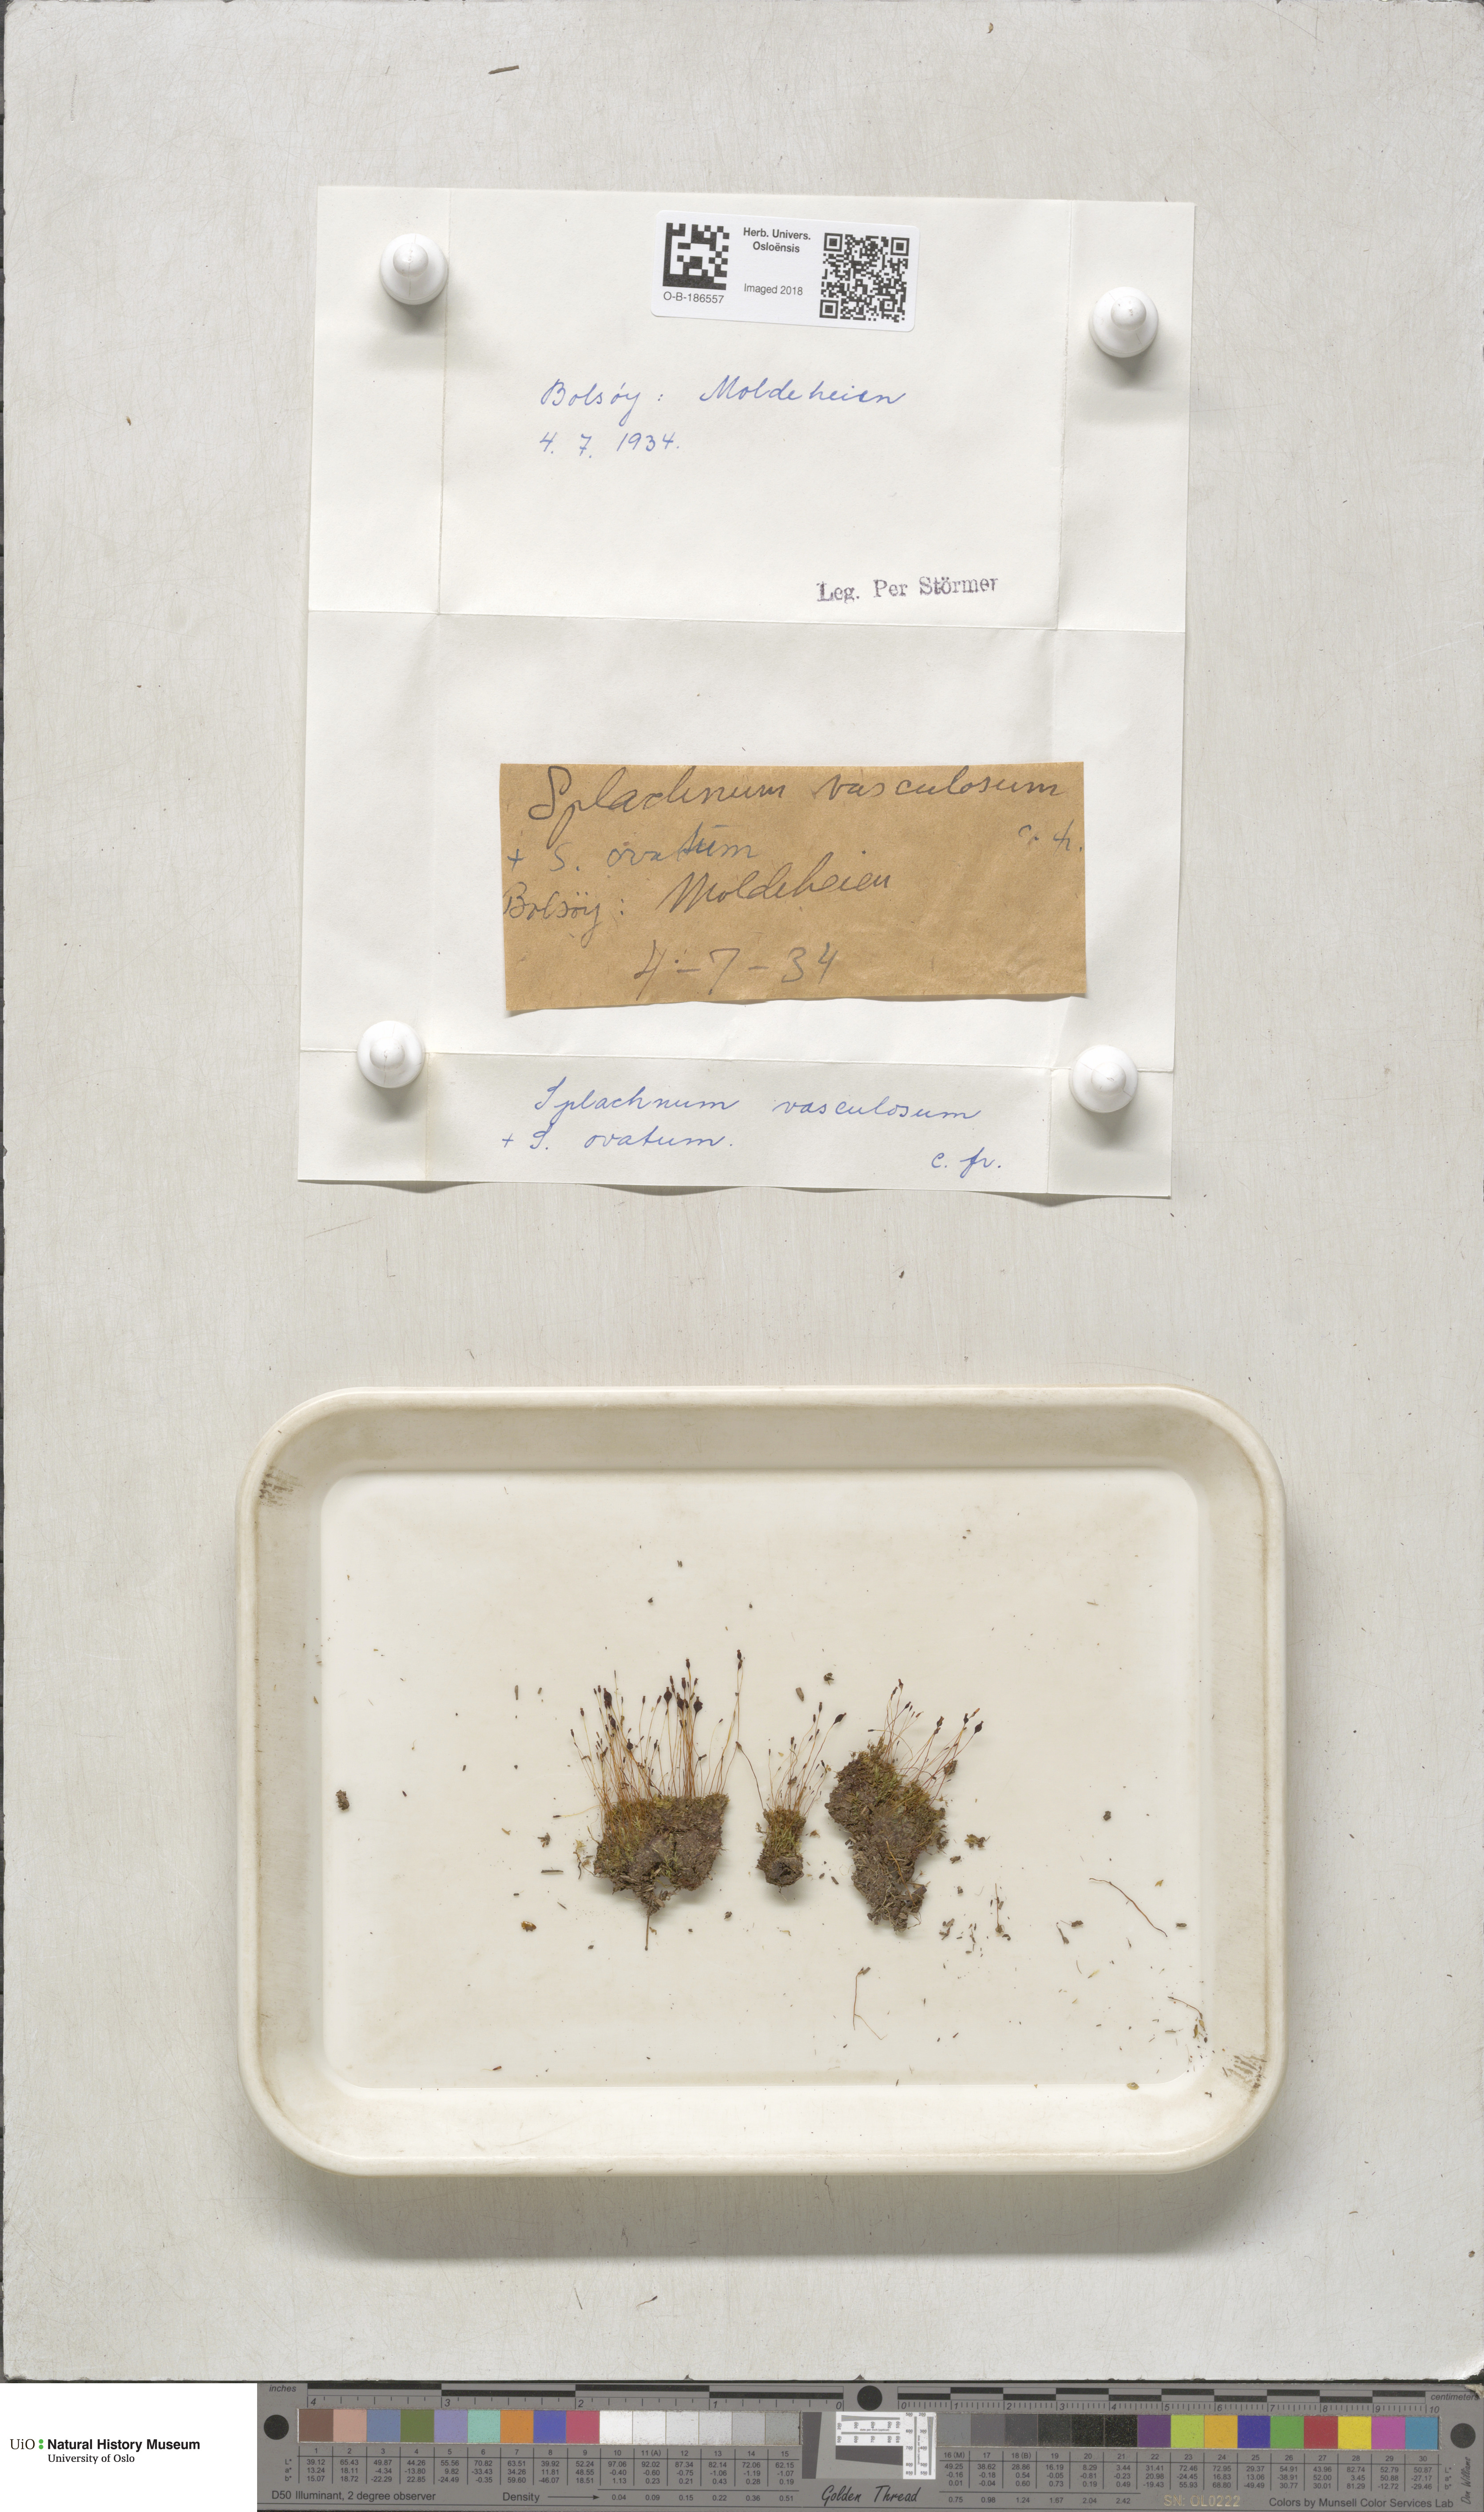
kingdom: Plantae
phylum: Bryophyta
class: Bryopsida
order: Splachnales
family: Splachnaceae
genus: Splachnum
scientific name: Splachnum vasculosum
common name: Rugged dung moss
